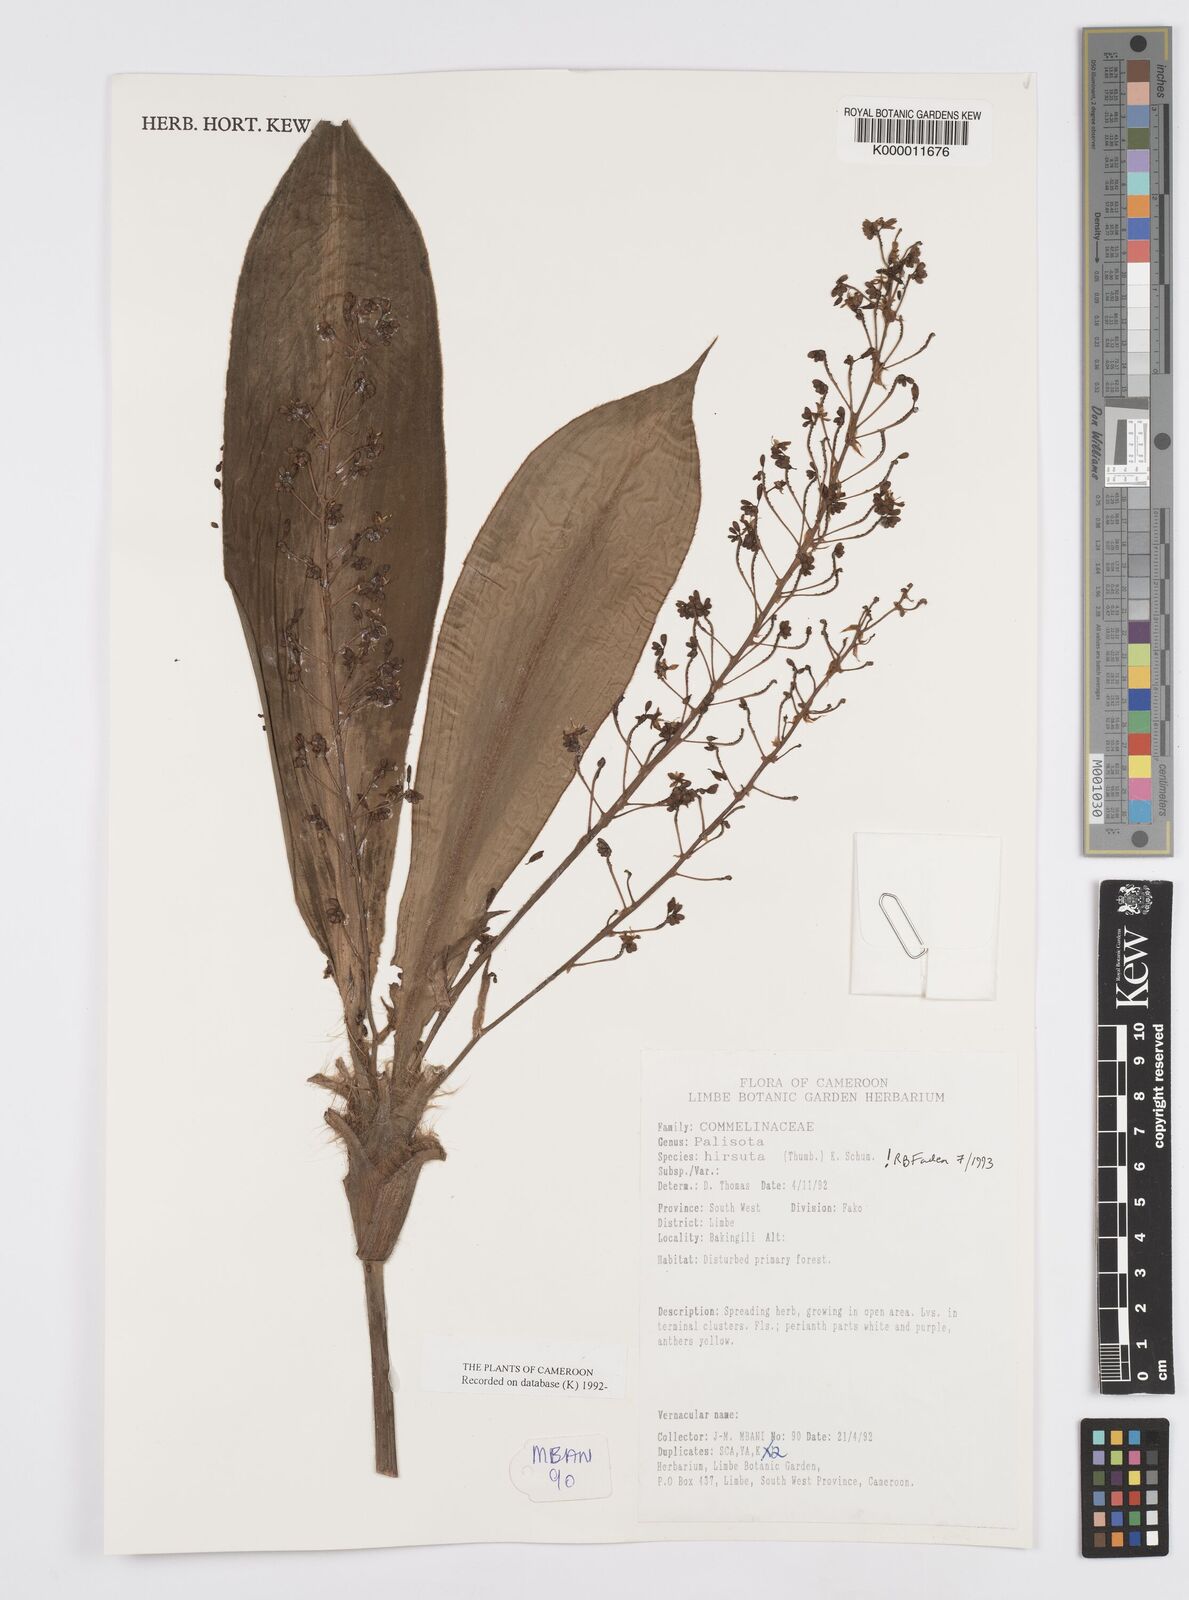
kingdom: Plantae
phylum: Tracheophyta
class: Liliopsida
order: Commelinales
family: Commelinaceae
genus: Palisota
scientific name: Palisota hirsuta
